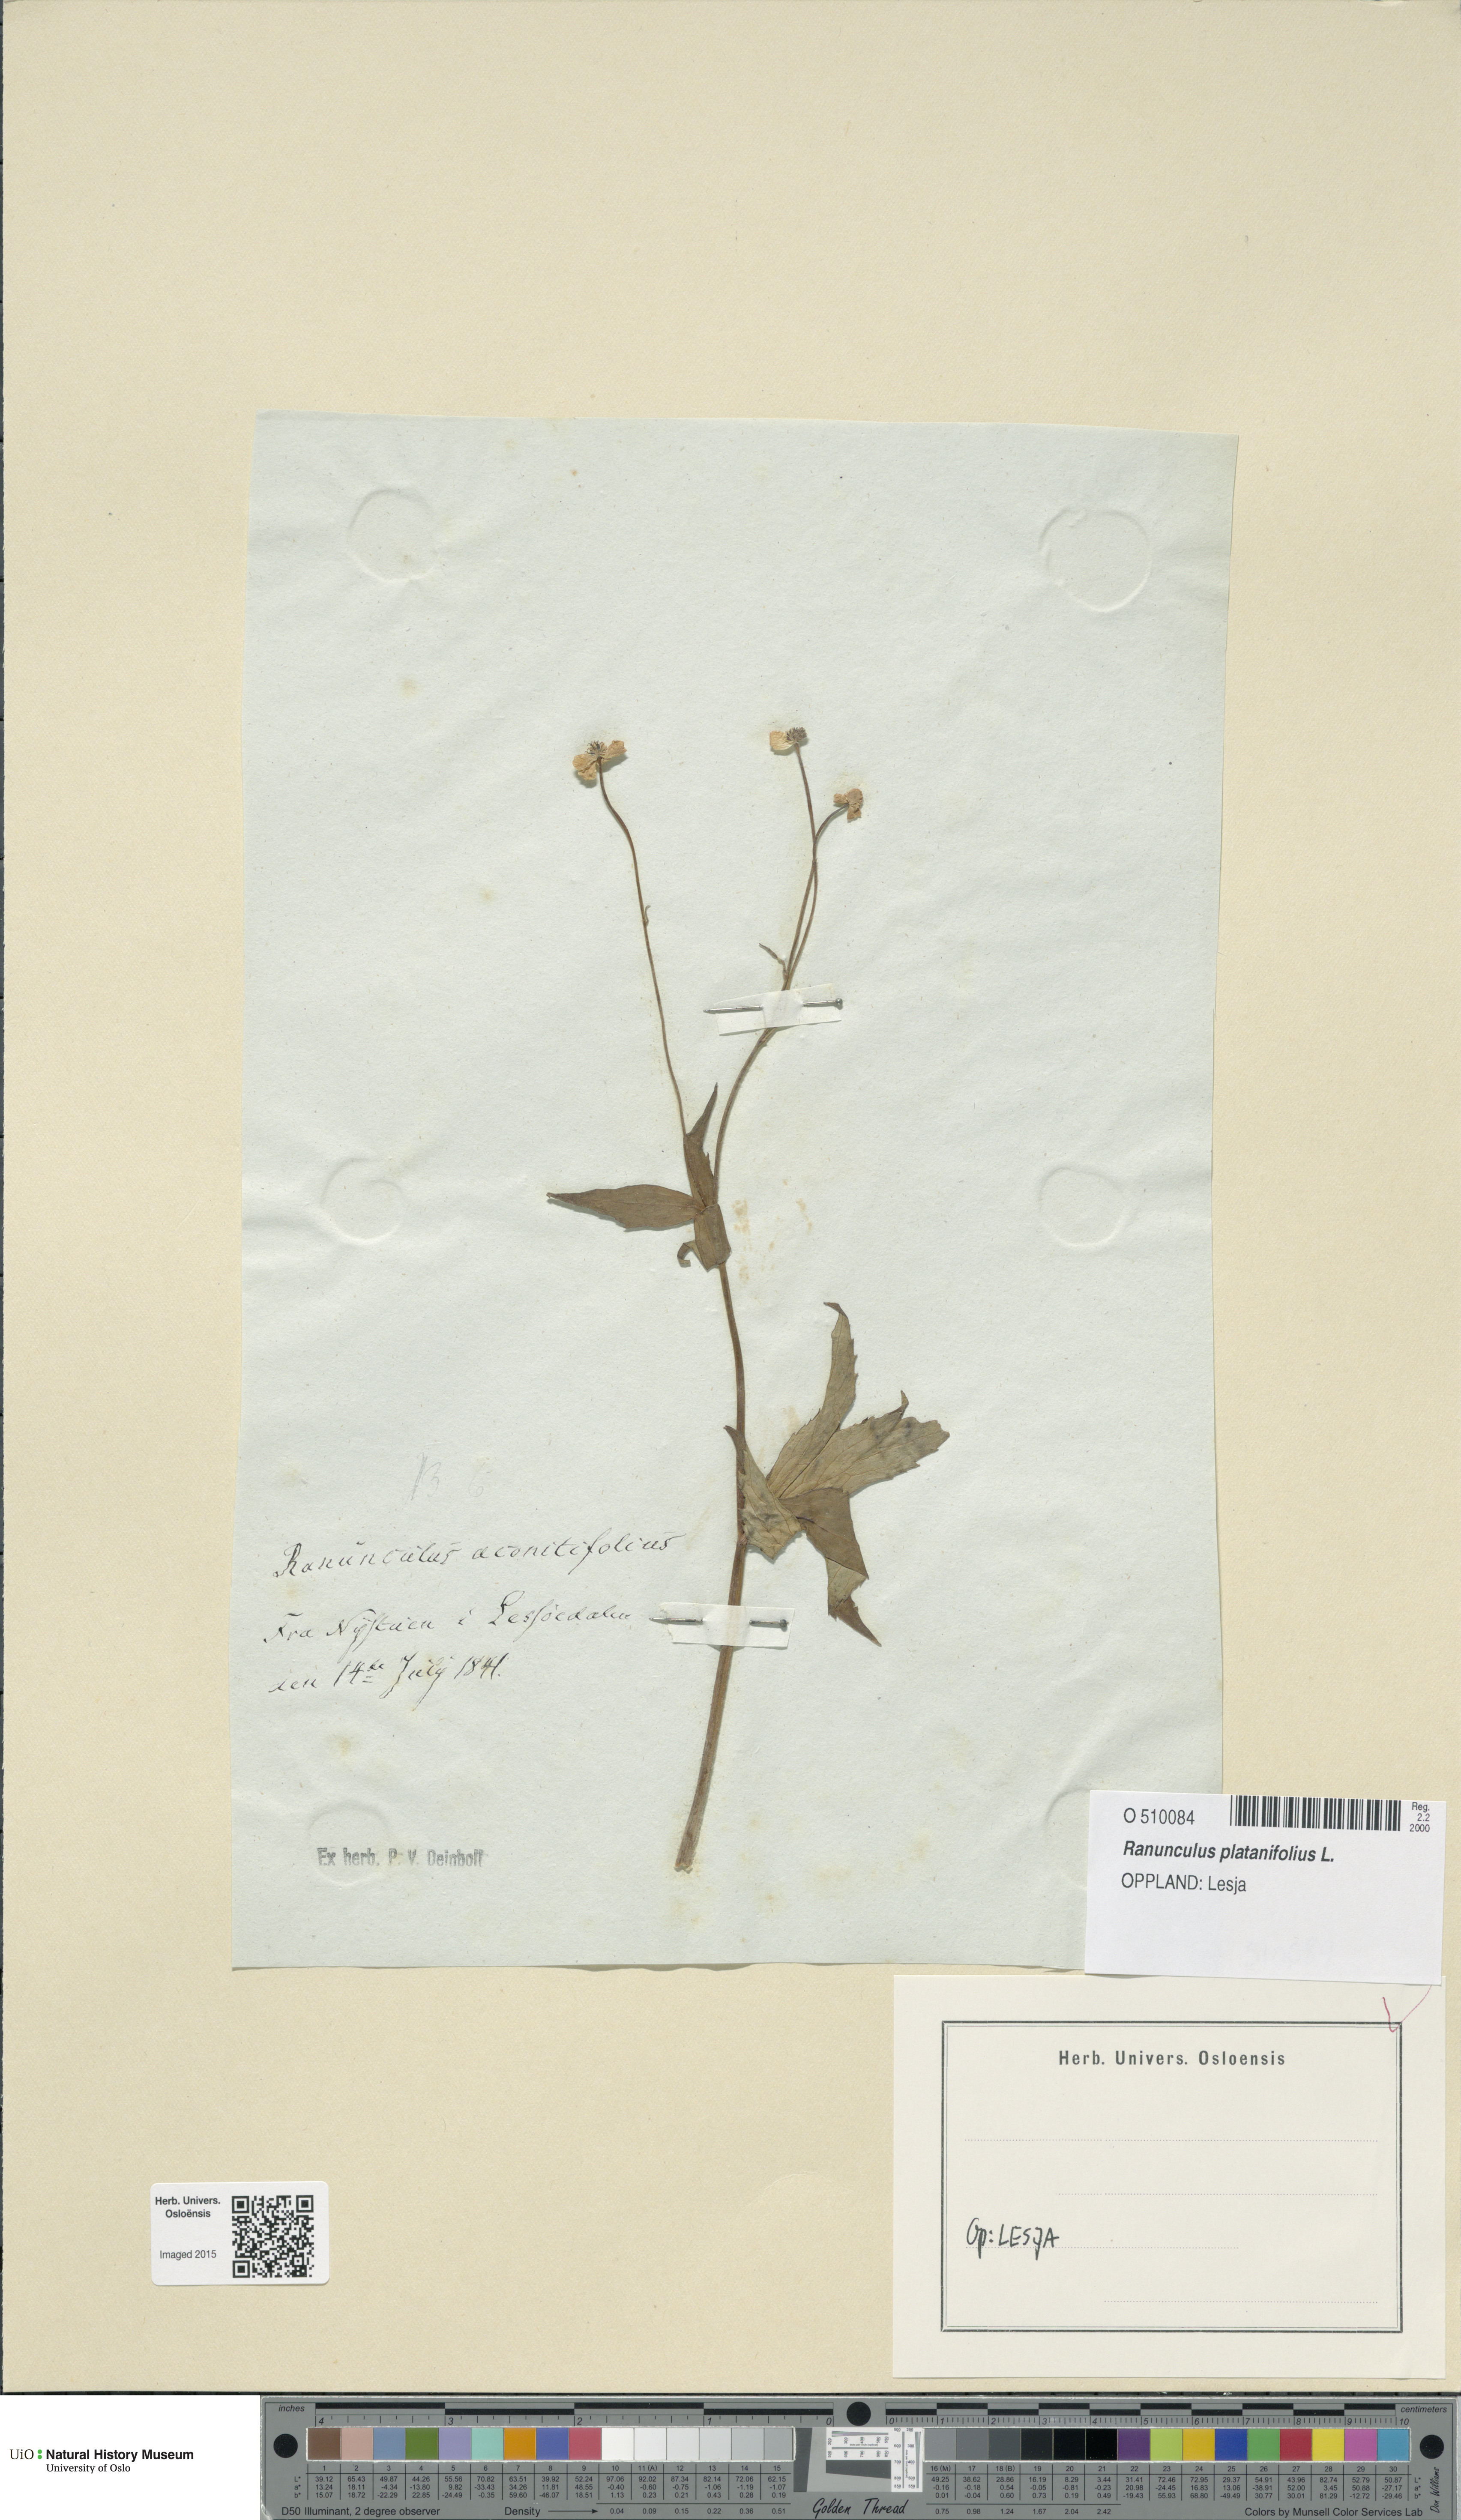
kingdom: Plantae
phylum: Tracheophyta
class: Magnoliopsida
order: Ranunculales
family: Ranunculaceae
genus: Ranunculus
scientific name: Ranunculus platanifolius
